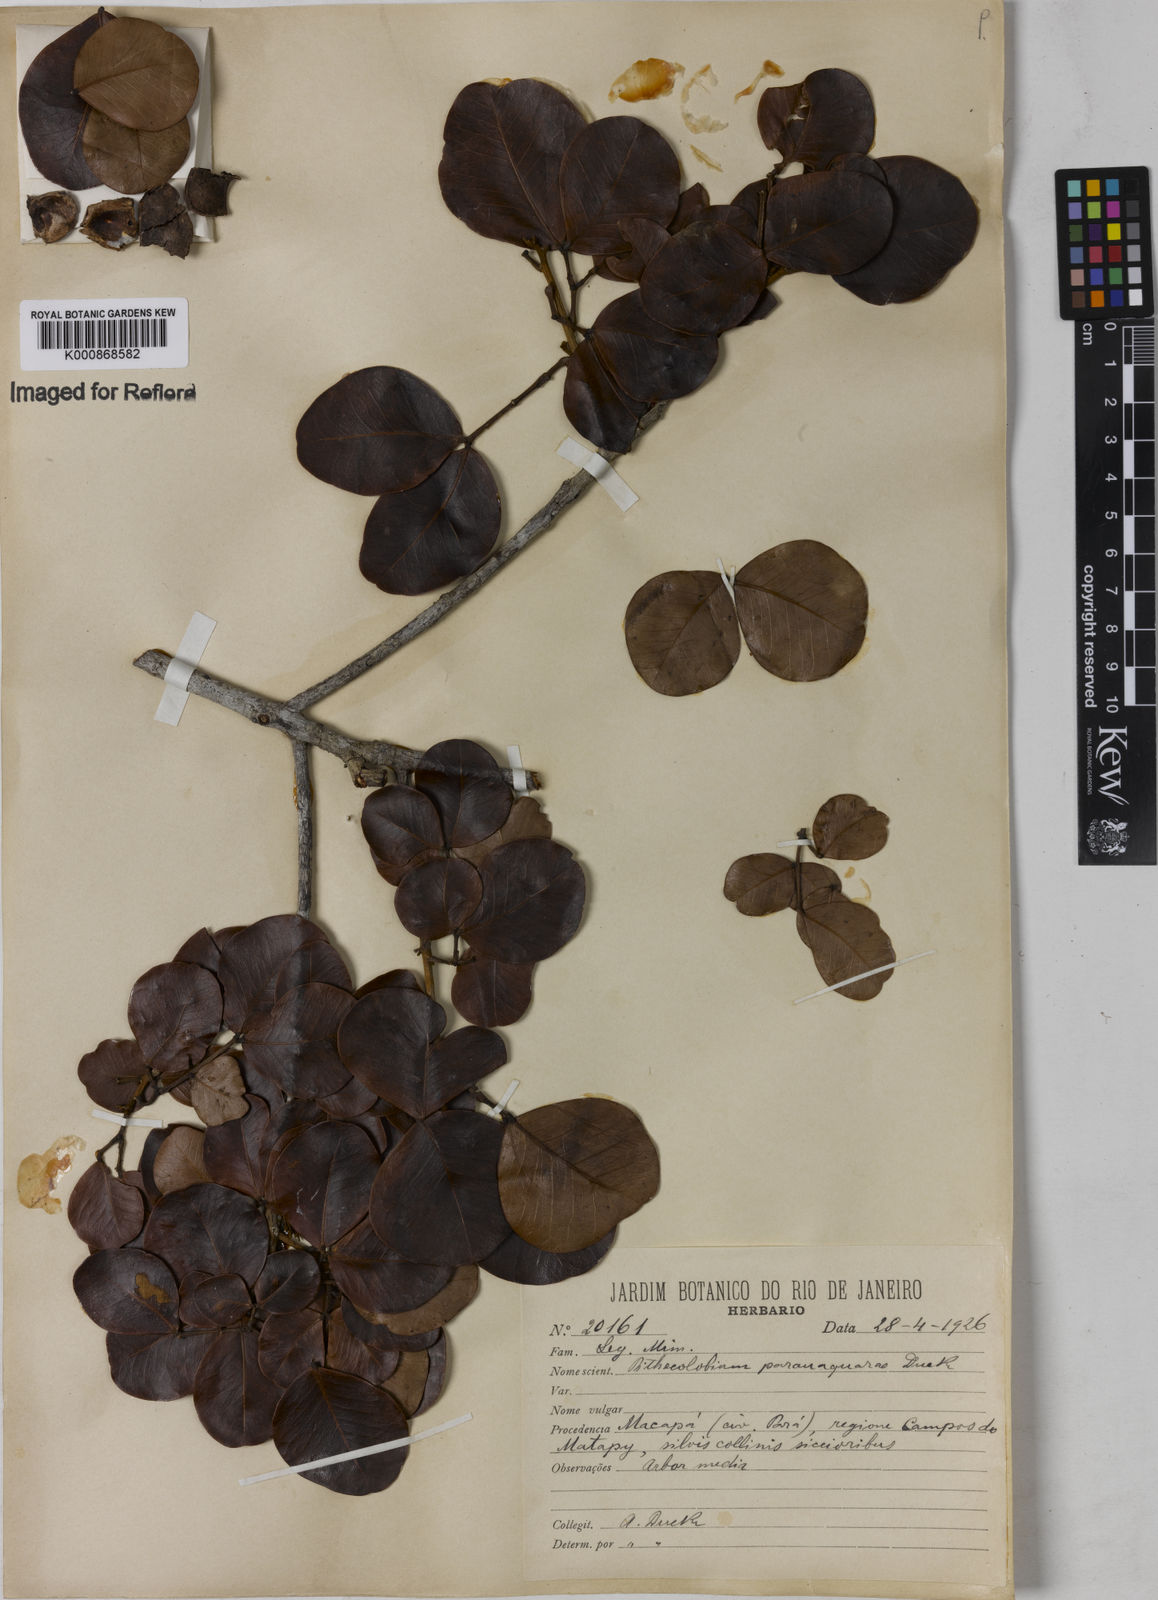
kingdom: Plantae
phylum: Tracheophyta
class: Magnoliopsida
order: Fabales
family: Fabaceae
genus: Abarema
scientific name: Abarema
